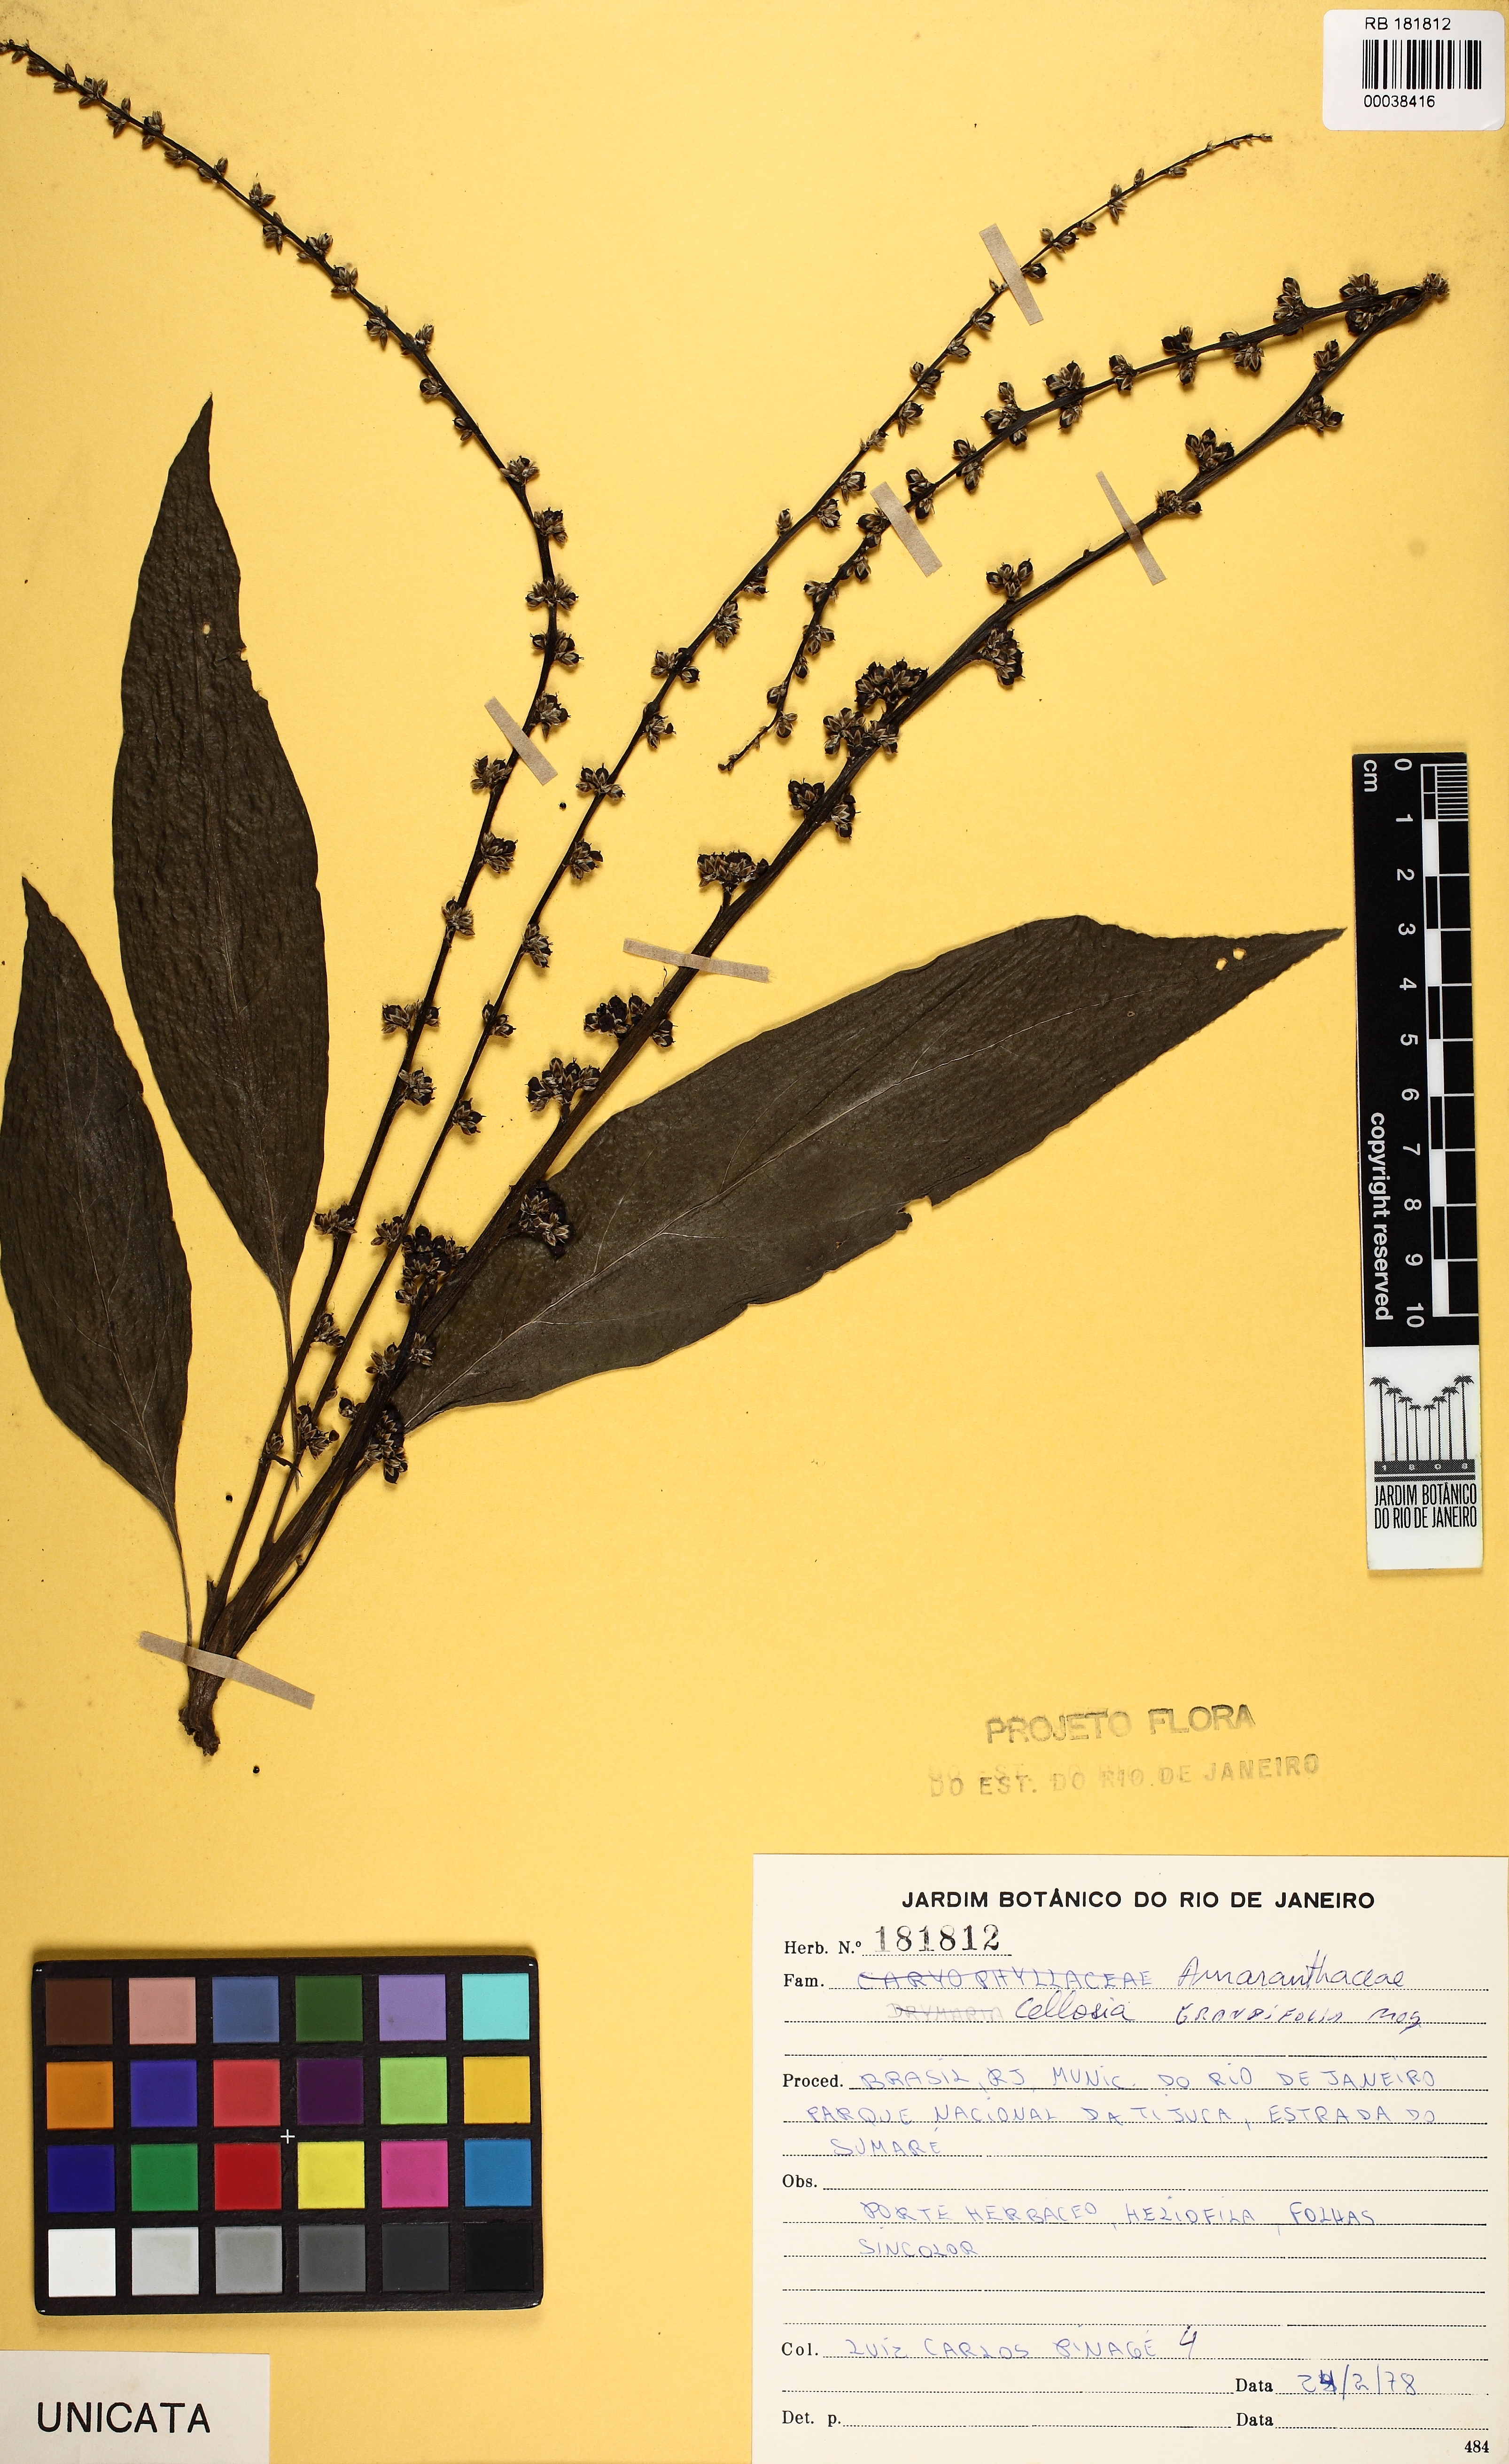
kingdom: Plantae
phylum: Tracheophyta
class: Magnoliopsida
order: Caryophyllales
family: Amaranthaceae
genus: Celosia
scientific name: Celosia grandifolia
